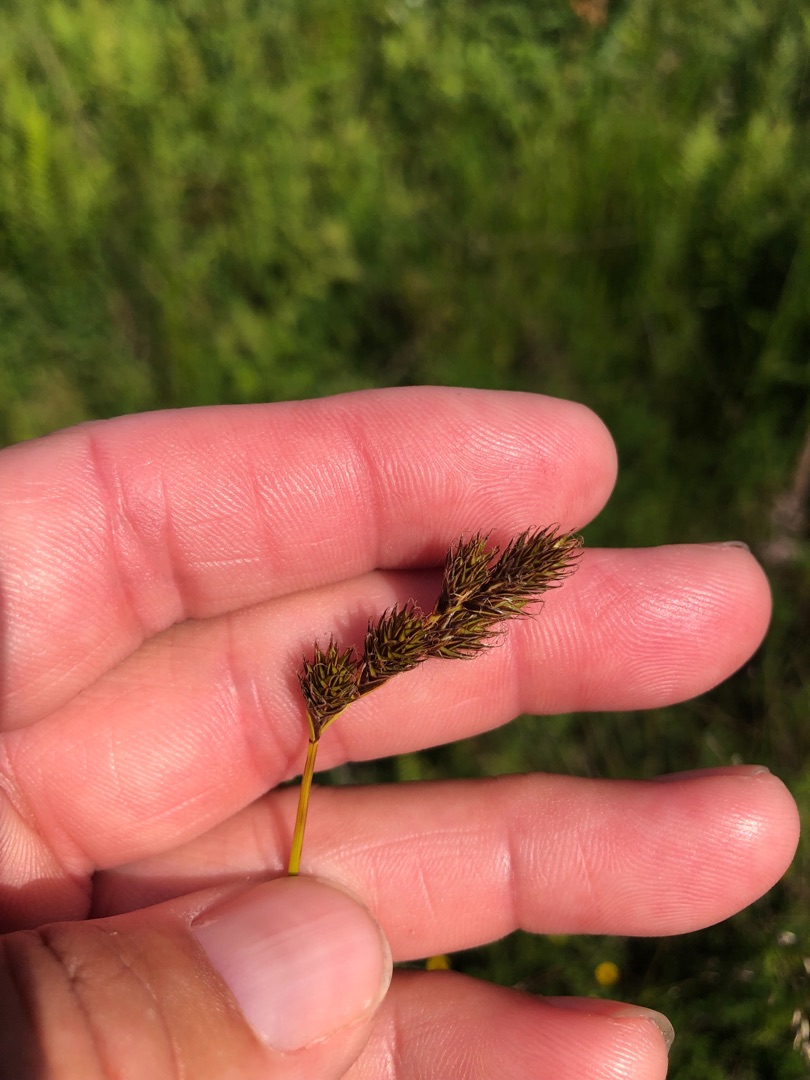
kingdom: Plantae
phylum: Tracheophyta
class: Liliopsida
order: Poales
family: Cyperaceae
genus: Carex
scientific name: Carex leporina
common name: Hare-star
